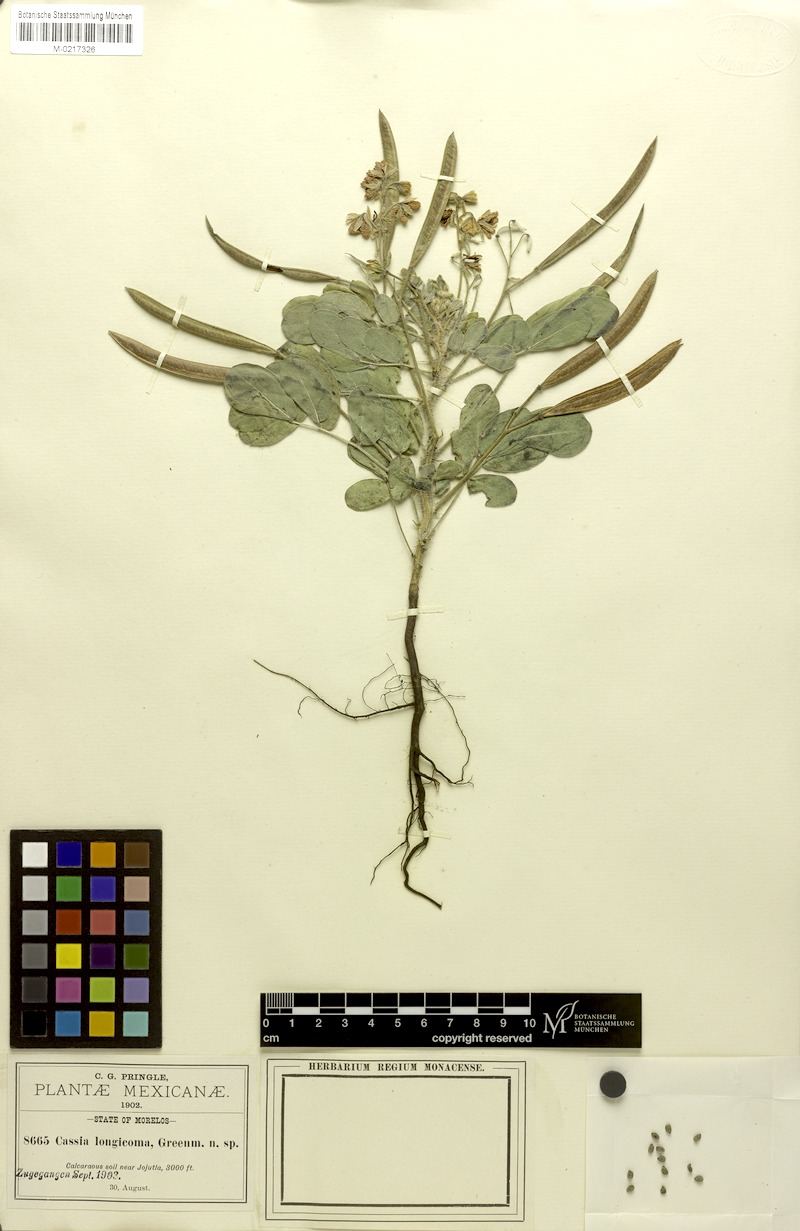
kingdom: Plantae
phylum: Tracheophyta
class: Magnoliopsida
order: Fabales
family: Fabaceae
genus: Senna
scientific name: Senna argentea
